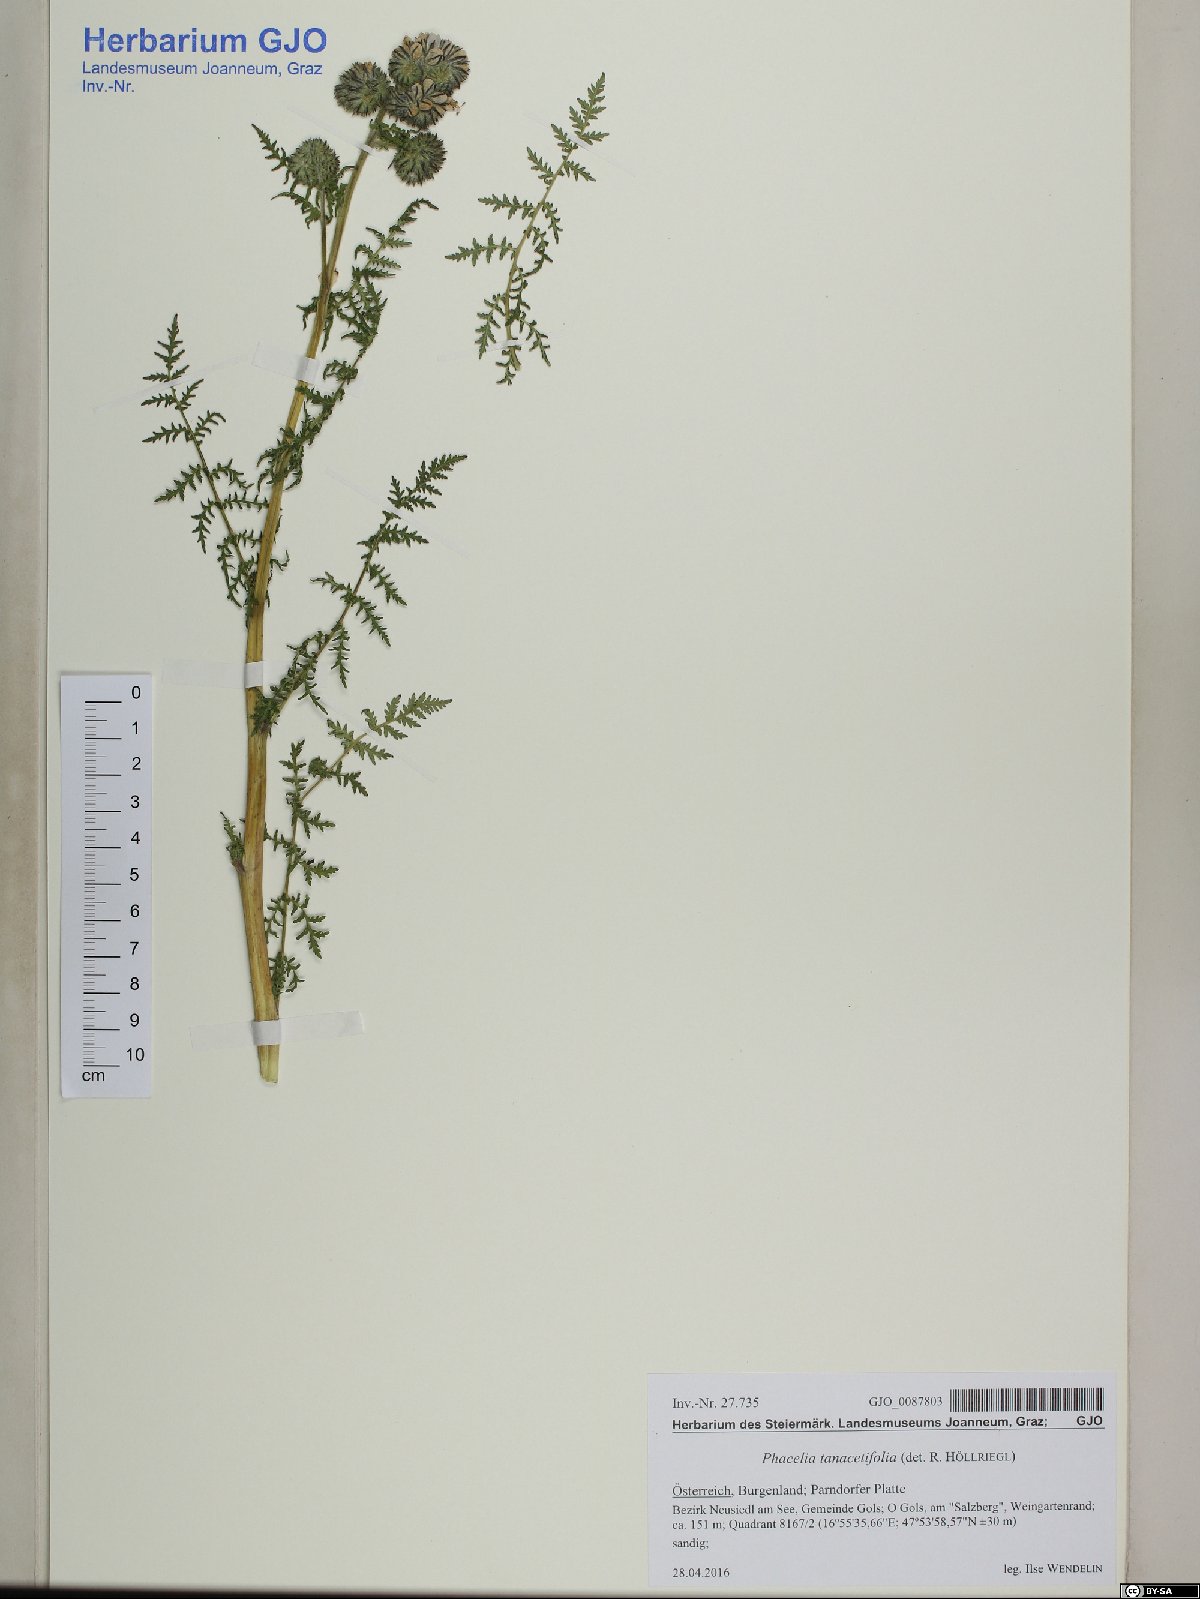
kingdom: Plantae
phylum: Tracheophyta
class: Magnoliopsida
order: Boraginales
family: Hydrophyllaceae
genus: Phacelia
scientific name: Phacelia tanacetifolia
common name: Phacelia
